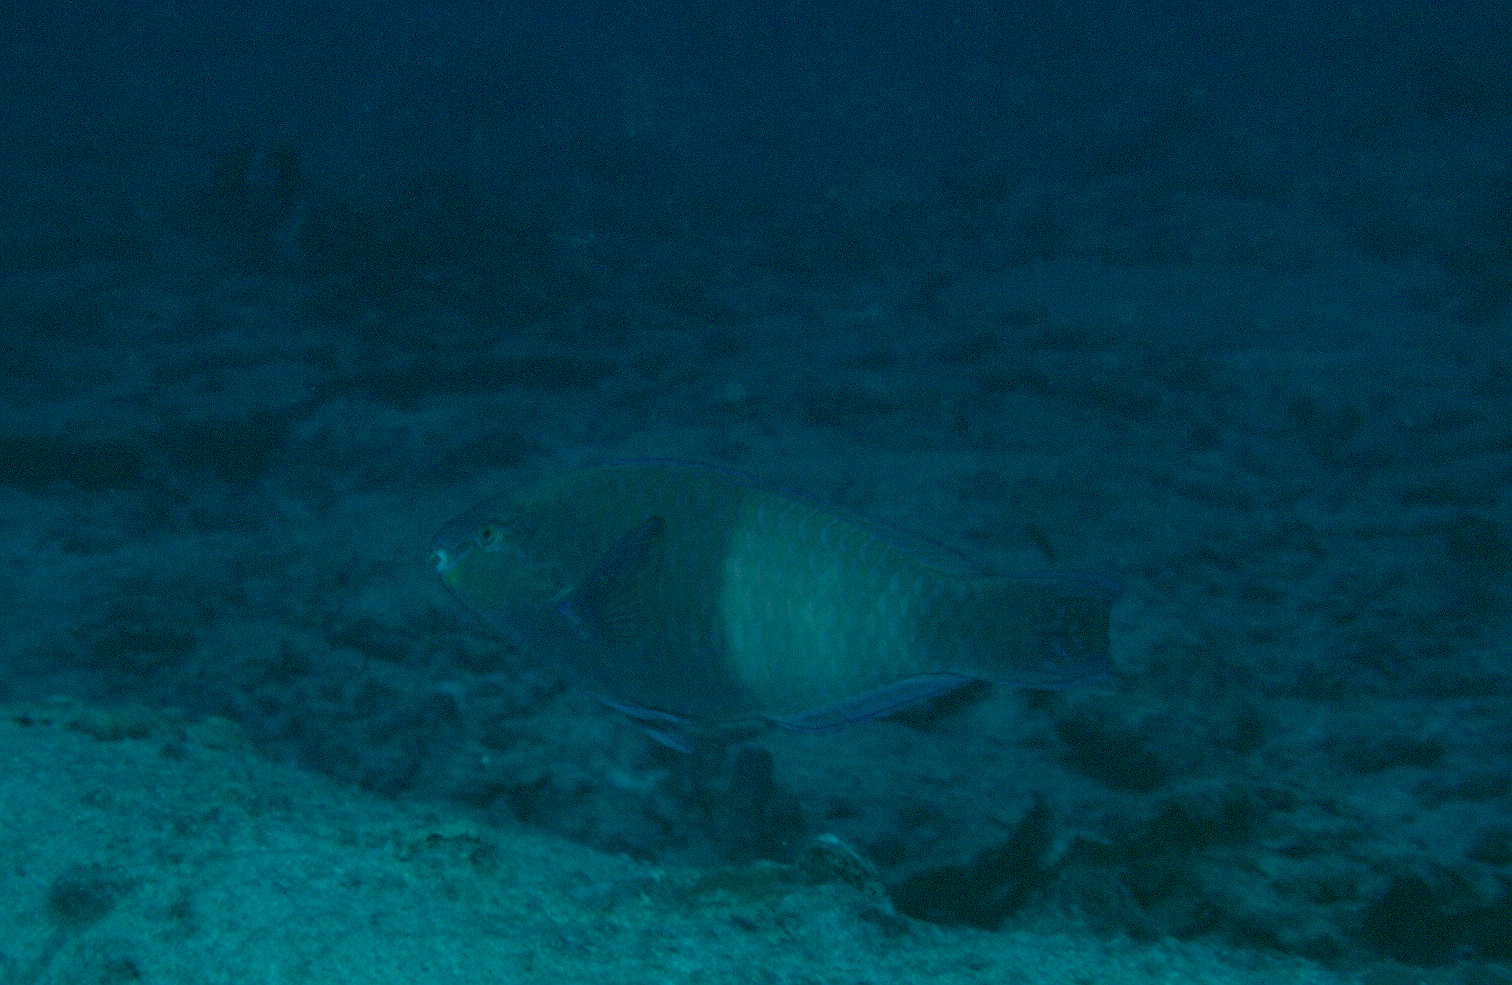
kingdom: Animalia
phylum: Chordata
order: Perciformes
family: Scaridae
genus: Scarus
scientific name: Scarus russelii
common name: Eclipse parrotfish
